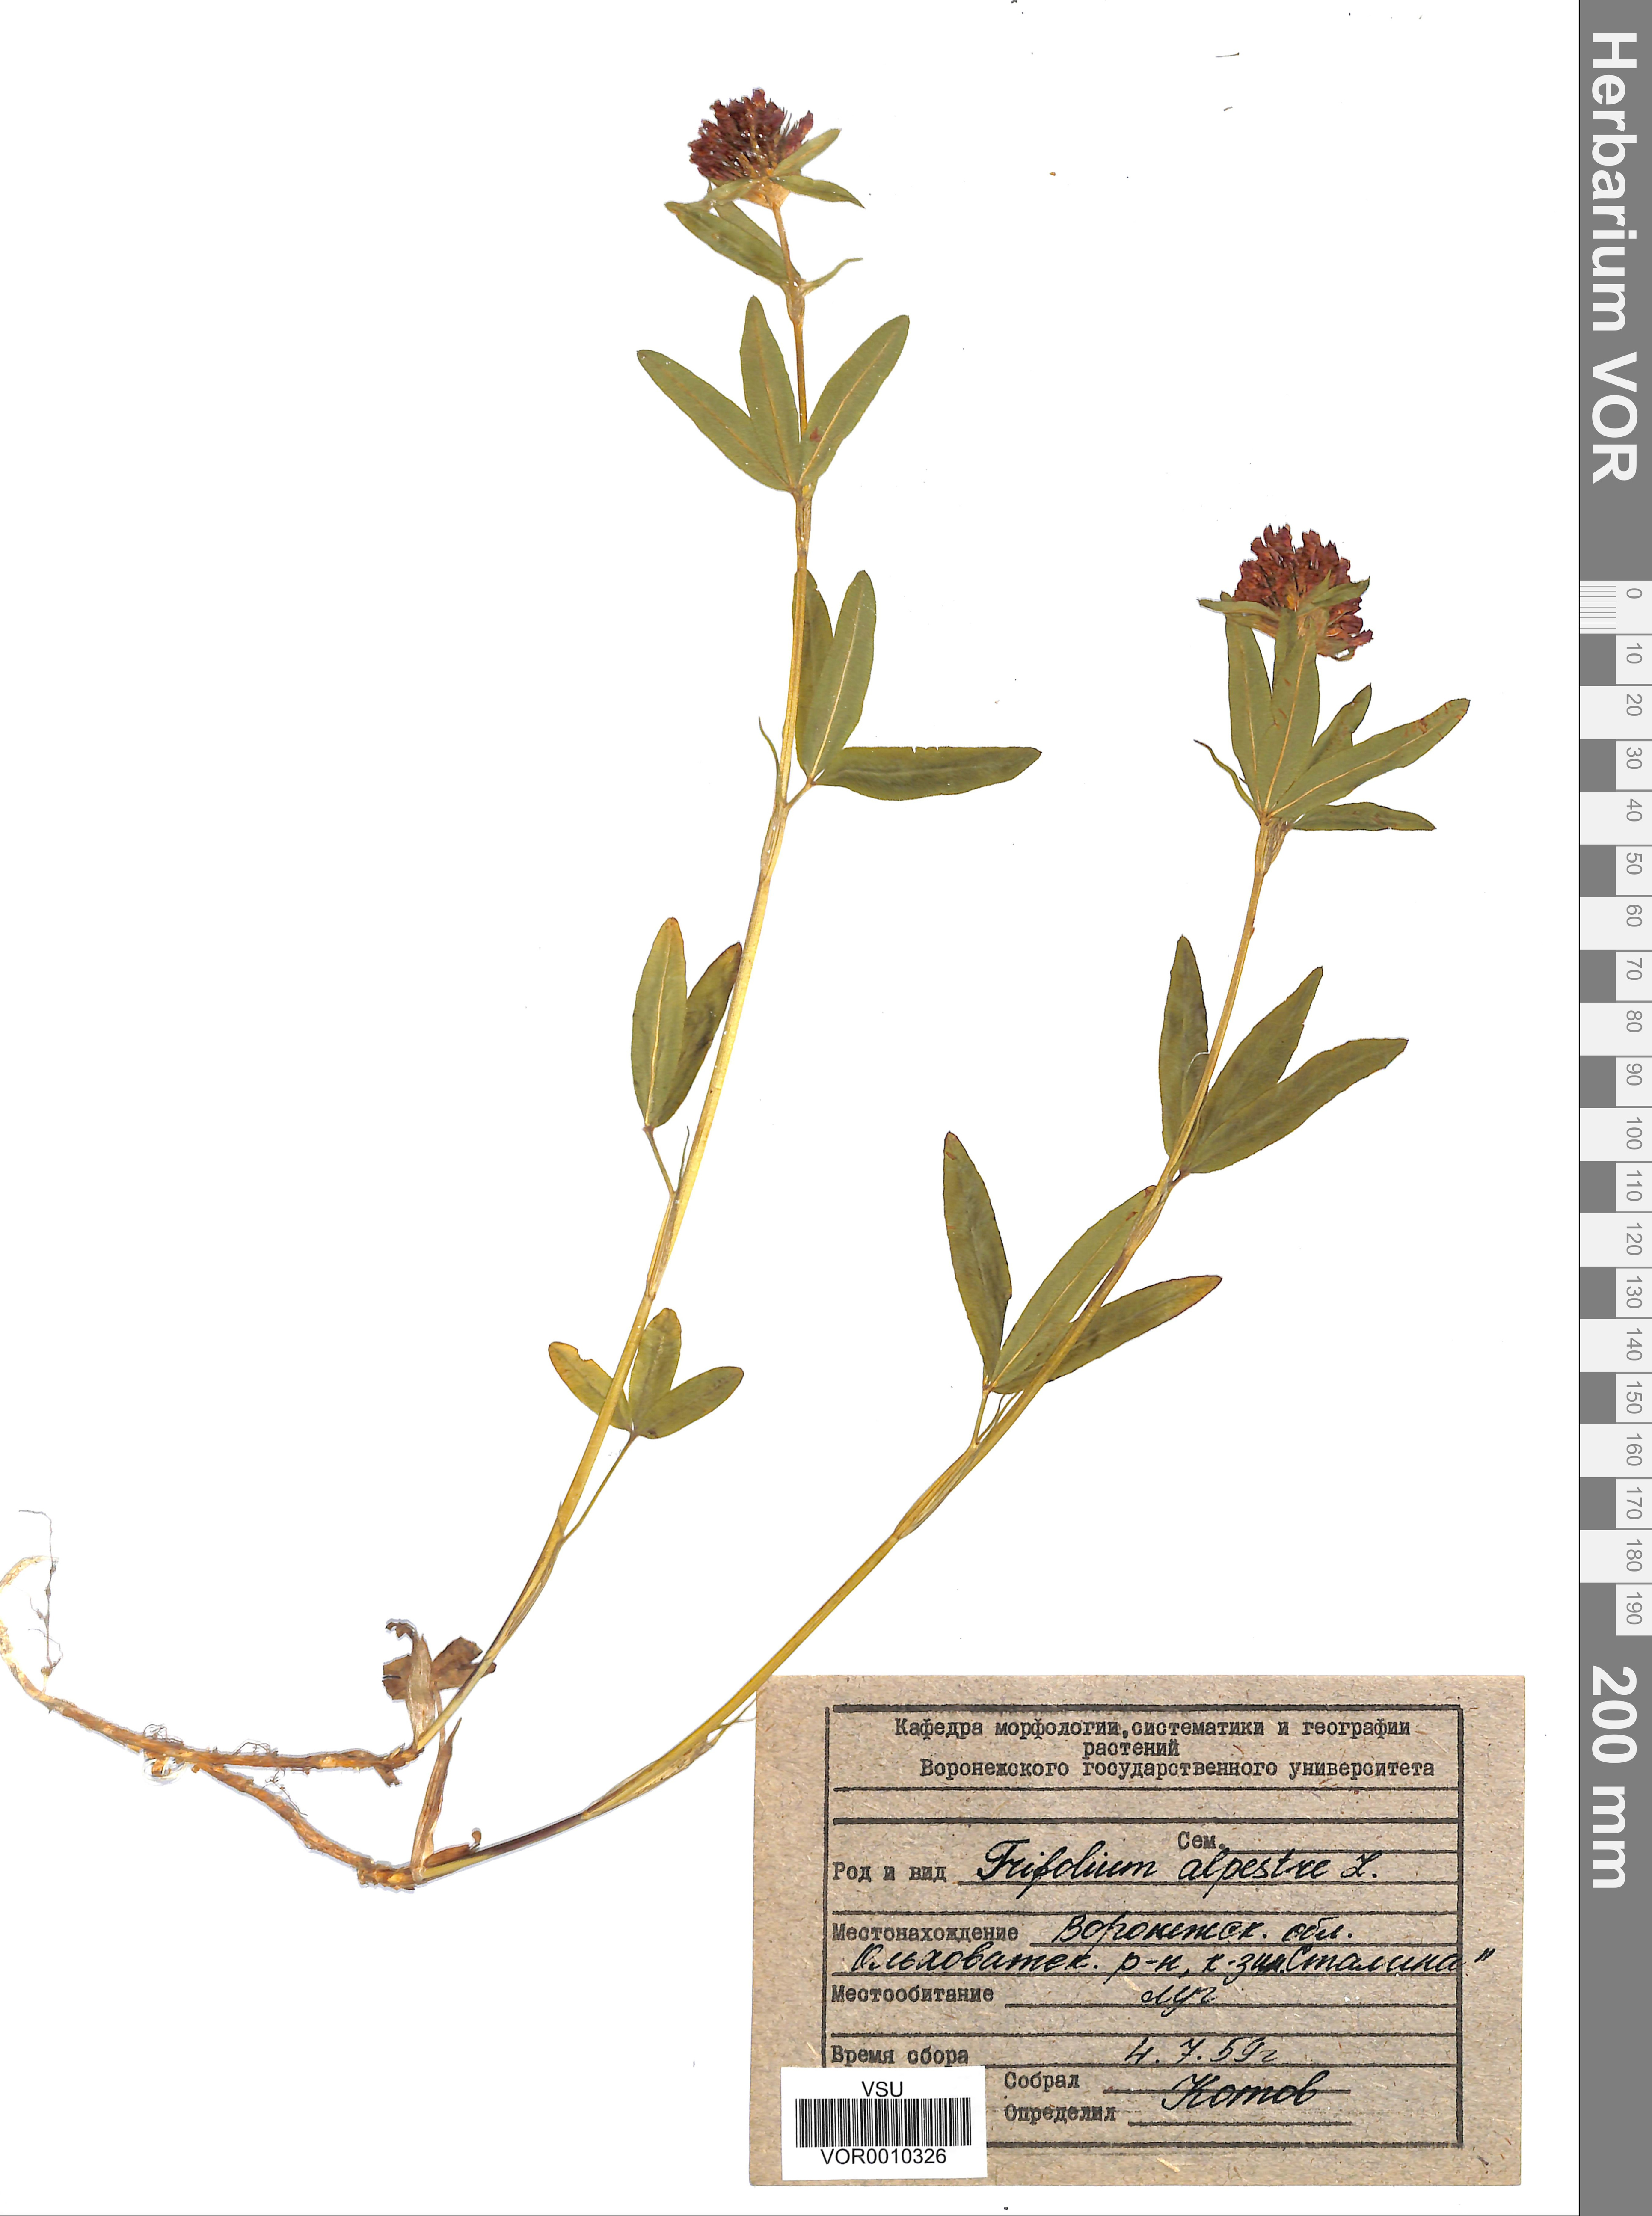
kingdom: Plantae
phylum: Tracheophyta
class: Magnoliopsida
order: Fabales
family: Fabaceae
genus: Trifolium
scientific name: Trifolium alpestre
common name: Owl-head clover
